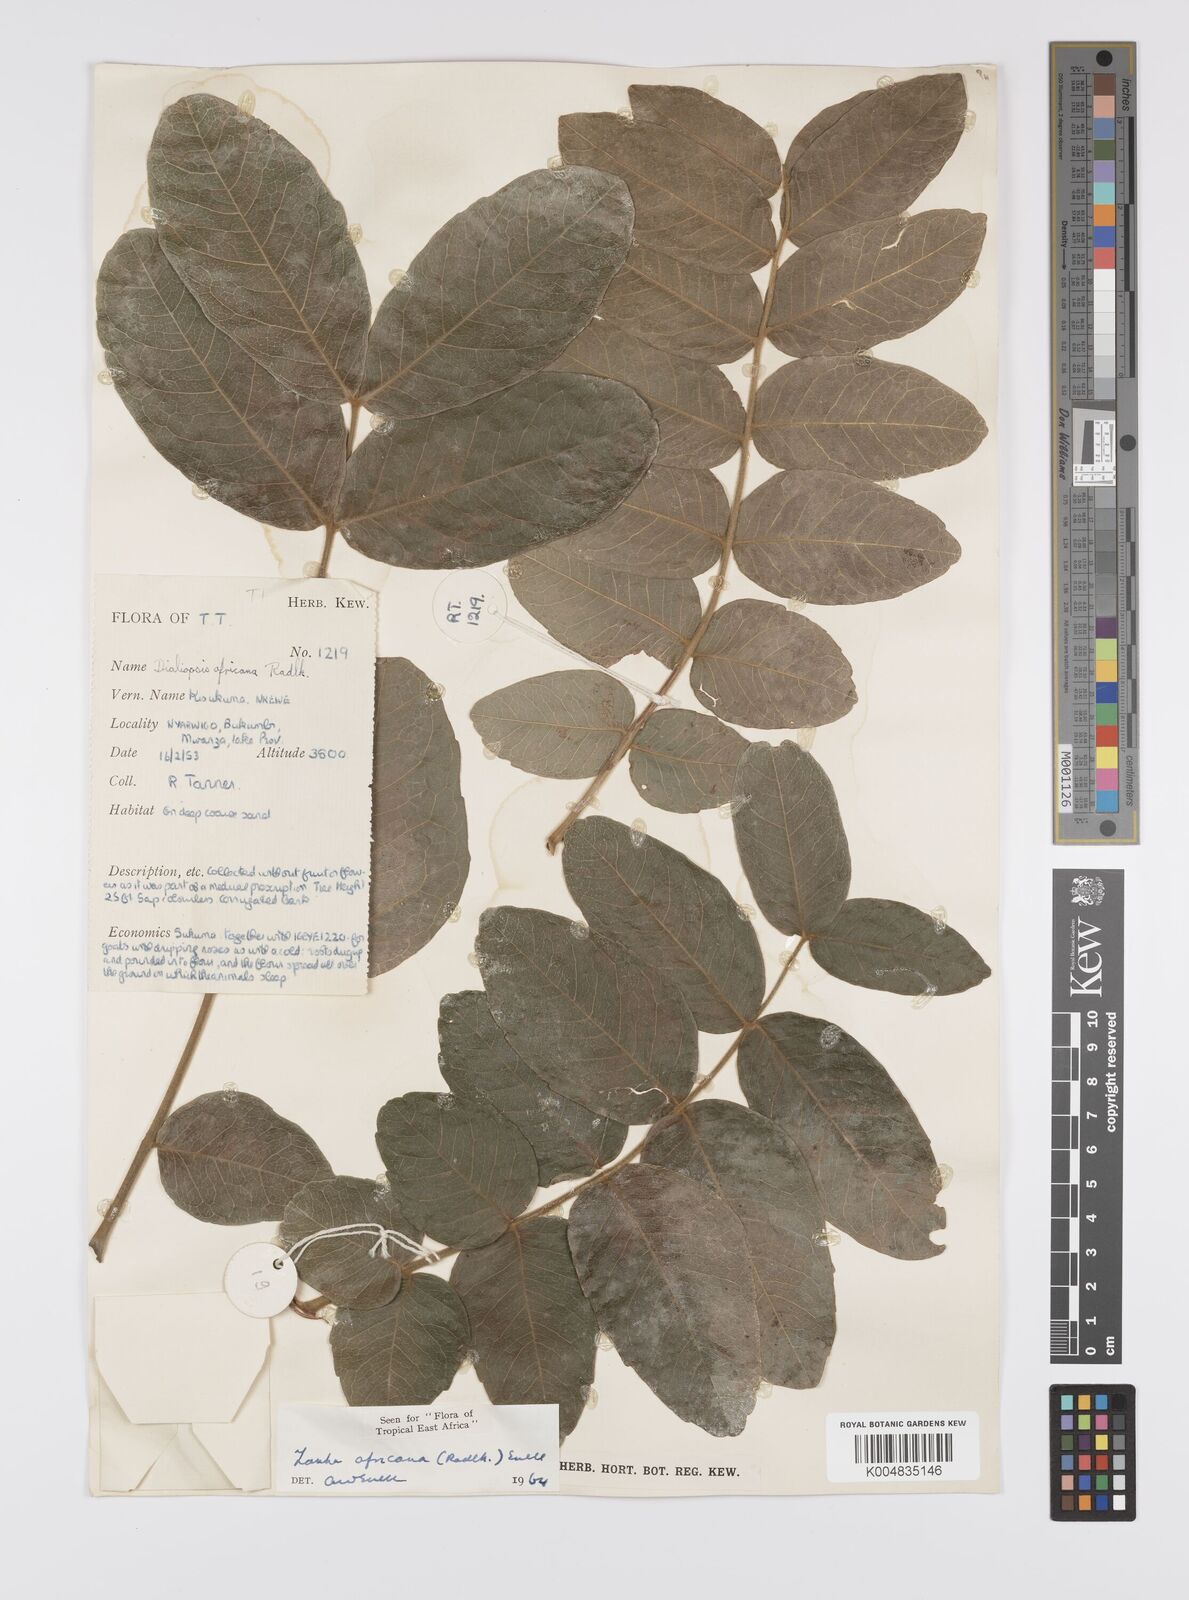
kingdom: Plantae
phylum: Tracheophyta
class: Magnoliopsida
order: Sapindales
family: Sapindaceae
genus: Zanha
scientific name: Zanha africana
